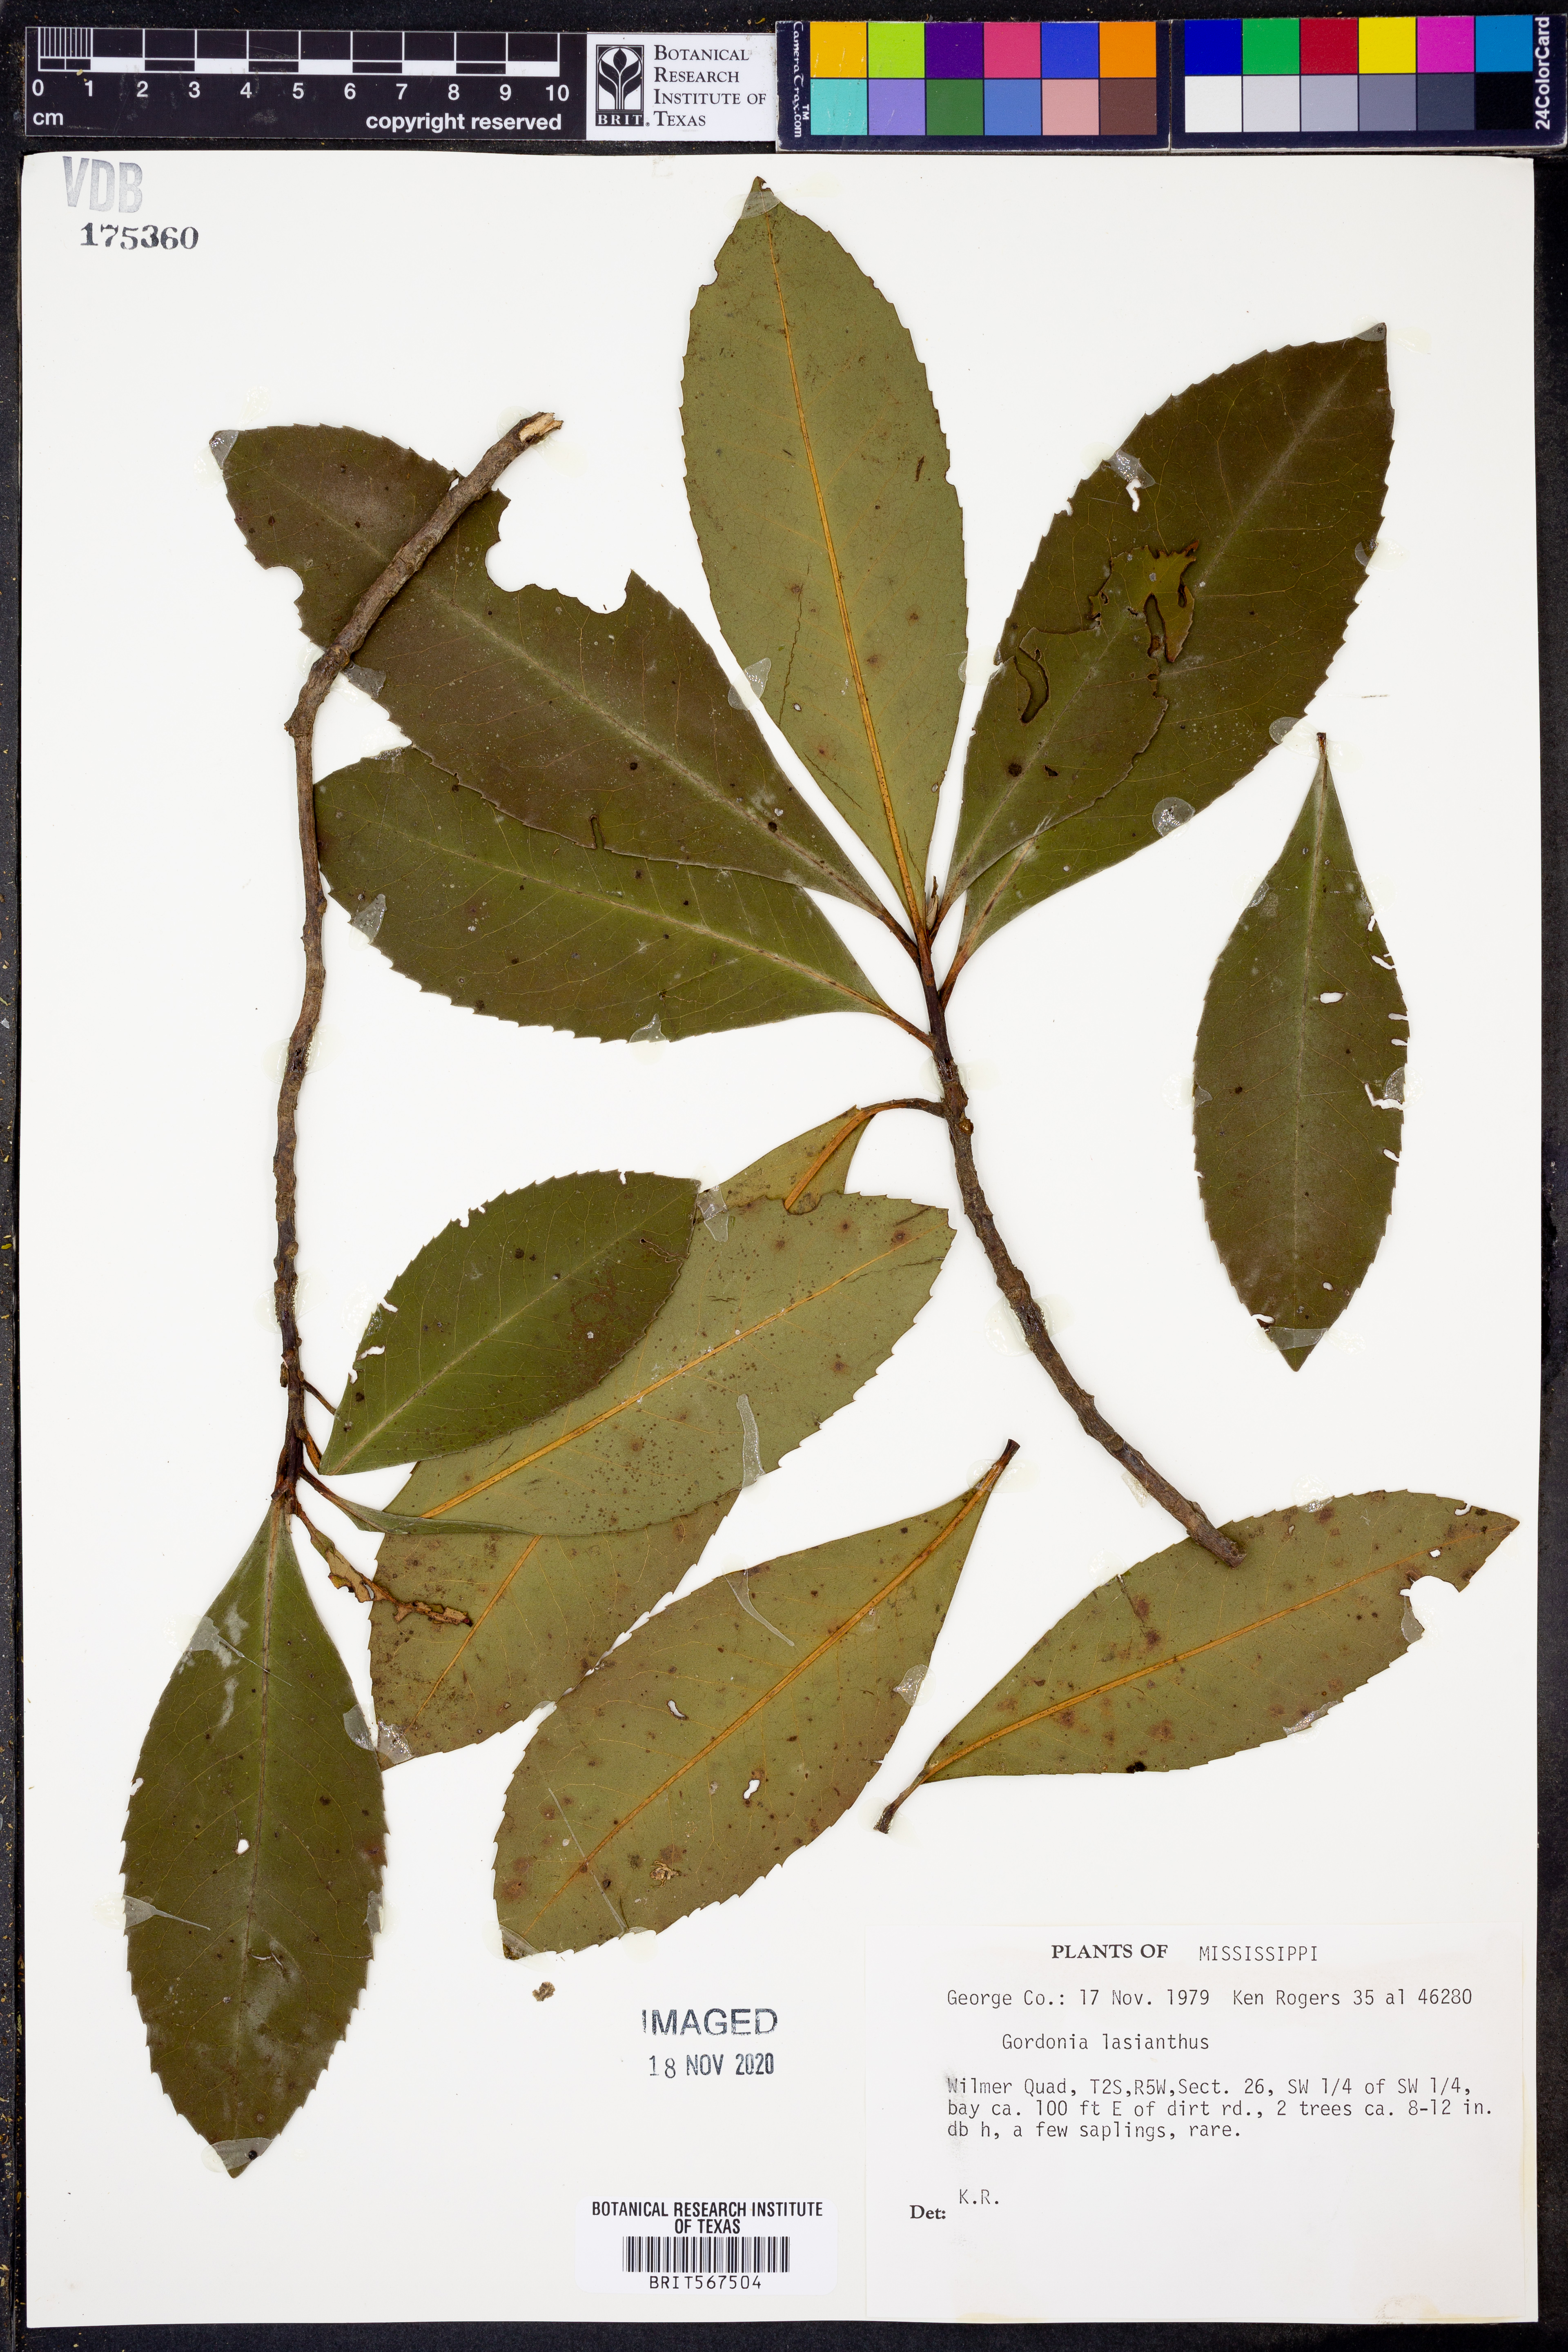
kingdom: Plantae
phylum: Tracheophyta
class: Magnoliopsida
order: Ericales
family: Theaceae
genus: Gordonia
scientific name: Gordonia lasianthus
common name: Loblolly bay
